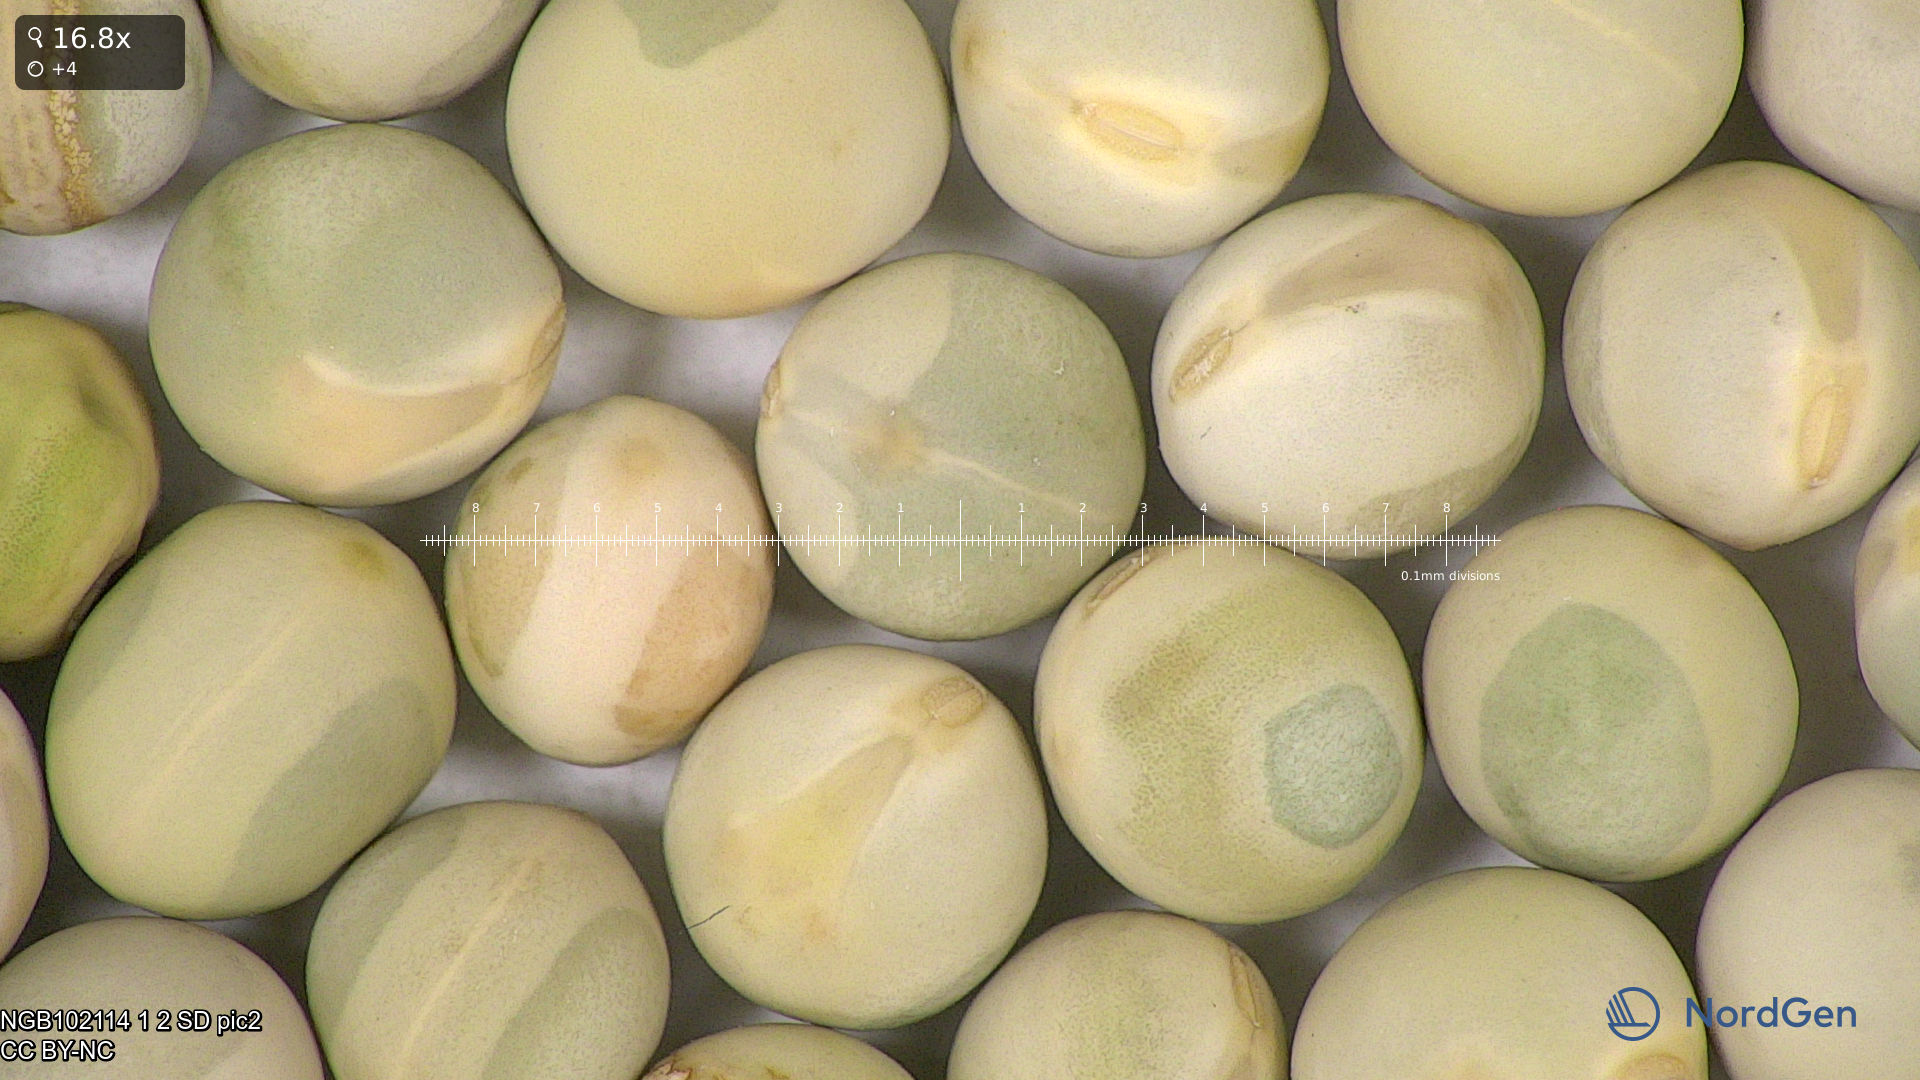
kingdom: Plantae
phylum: Tracheophyta
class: Magnoliopsida
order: Fabales
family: Fabaceae
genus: Lathyrus
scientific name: Lathyrus oleraceus
